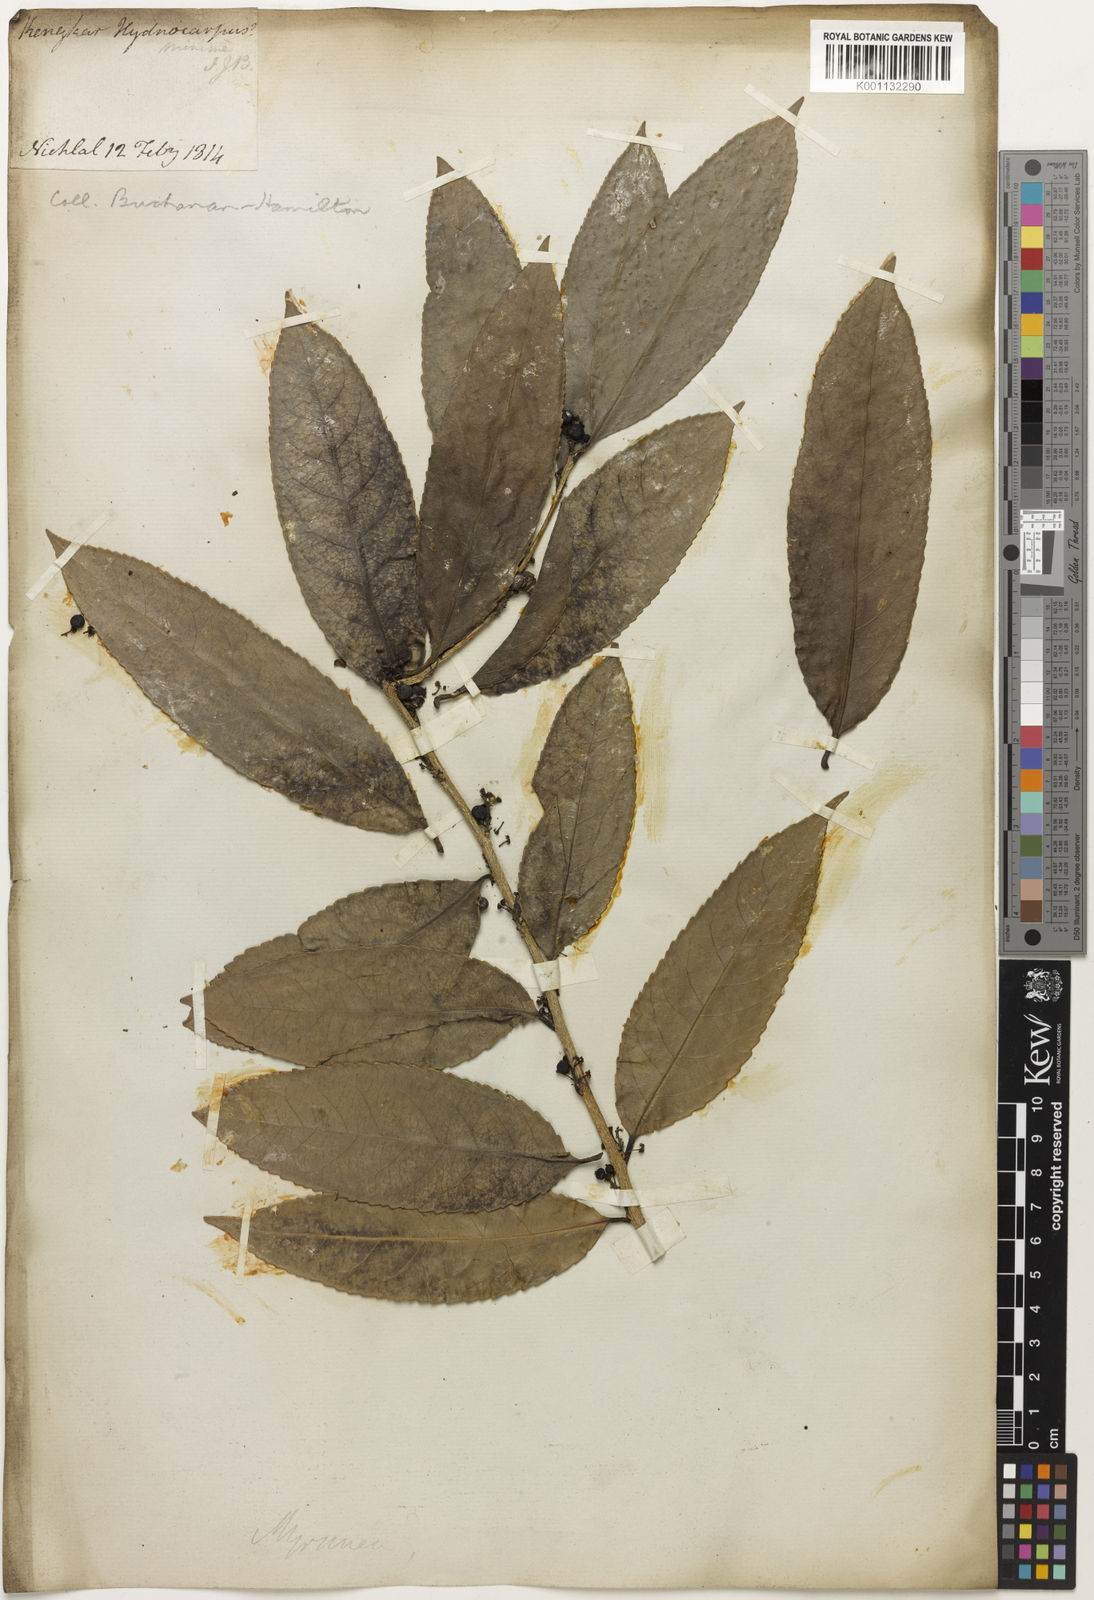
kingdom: Plantae
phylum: Tracheophyta
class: Magnoliopsida
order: Malvales
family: Bixaceae
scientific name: Bixaceae
